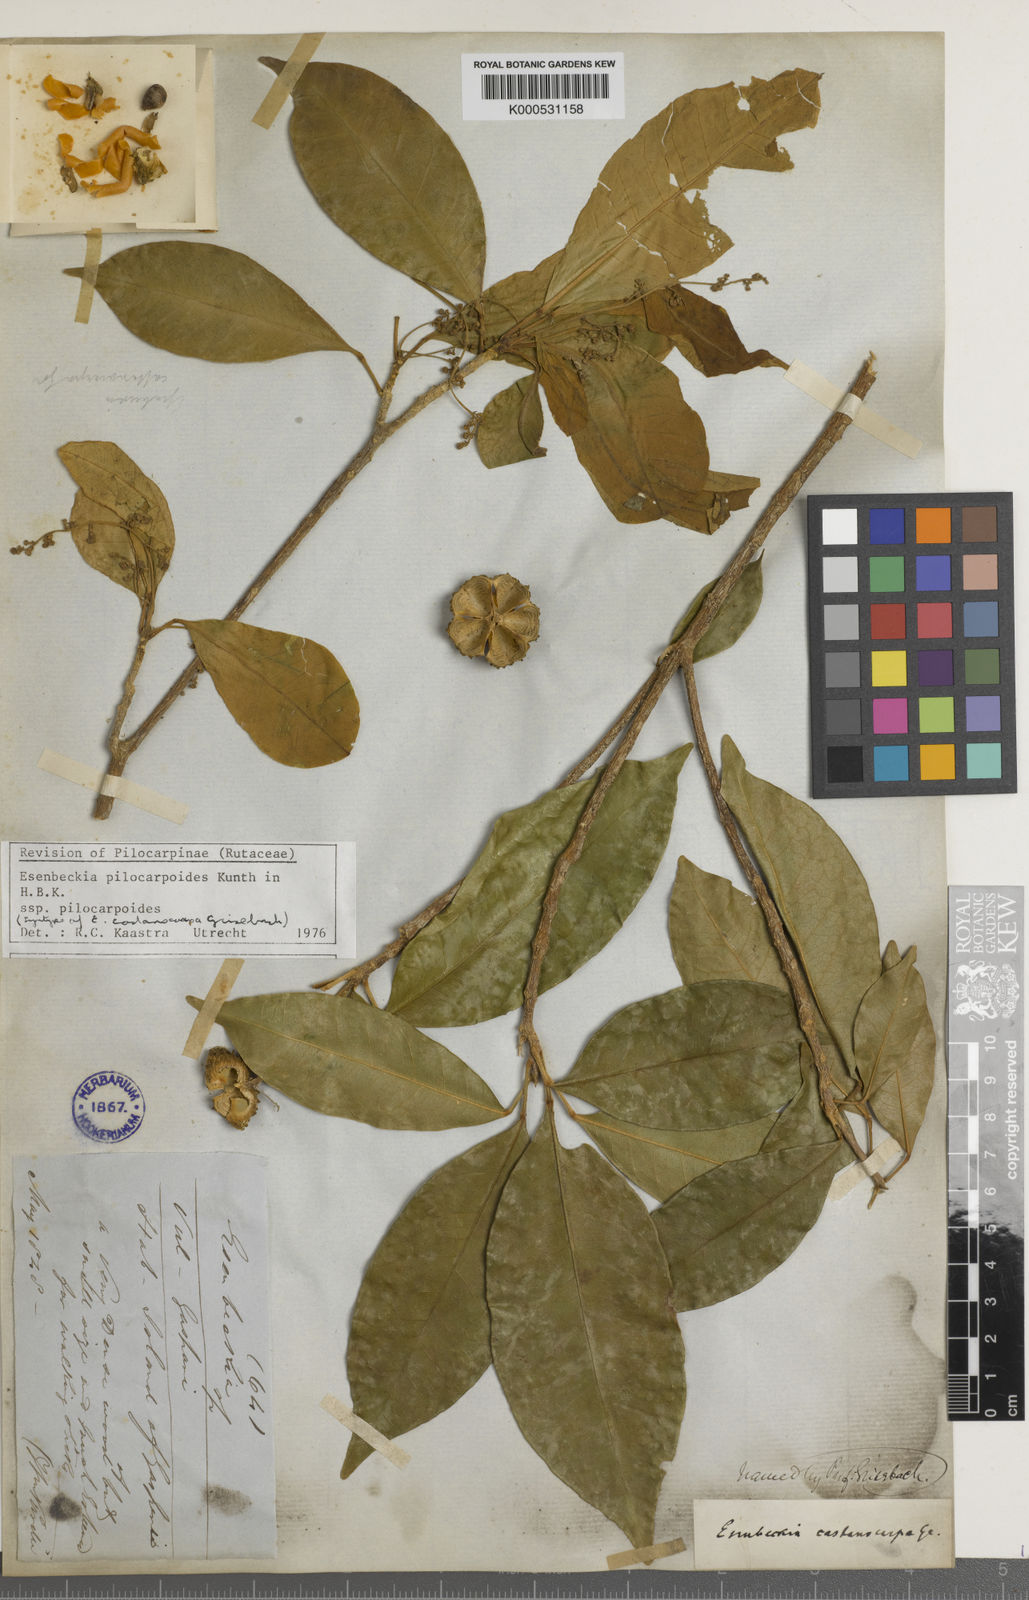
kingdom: Plantae
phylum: Tracheophyta
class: Magnoliopsida
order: Sapindales
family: Rutaceae
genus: Esenbeckia
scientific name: Esenbeckia pilocarpoides
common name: Pilosefruit esenbeckia
